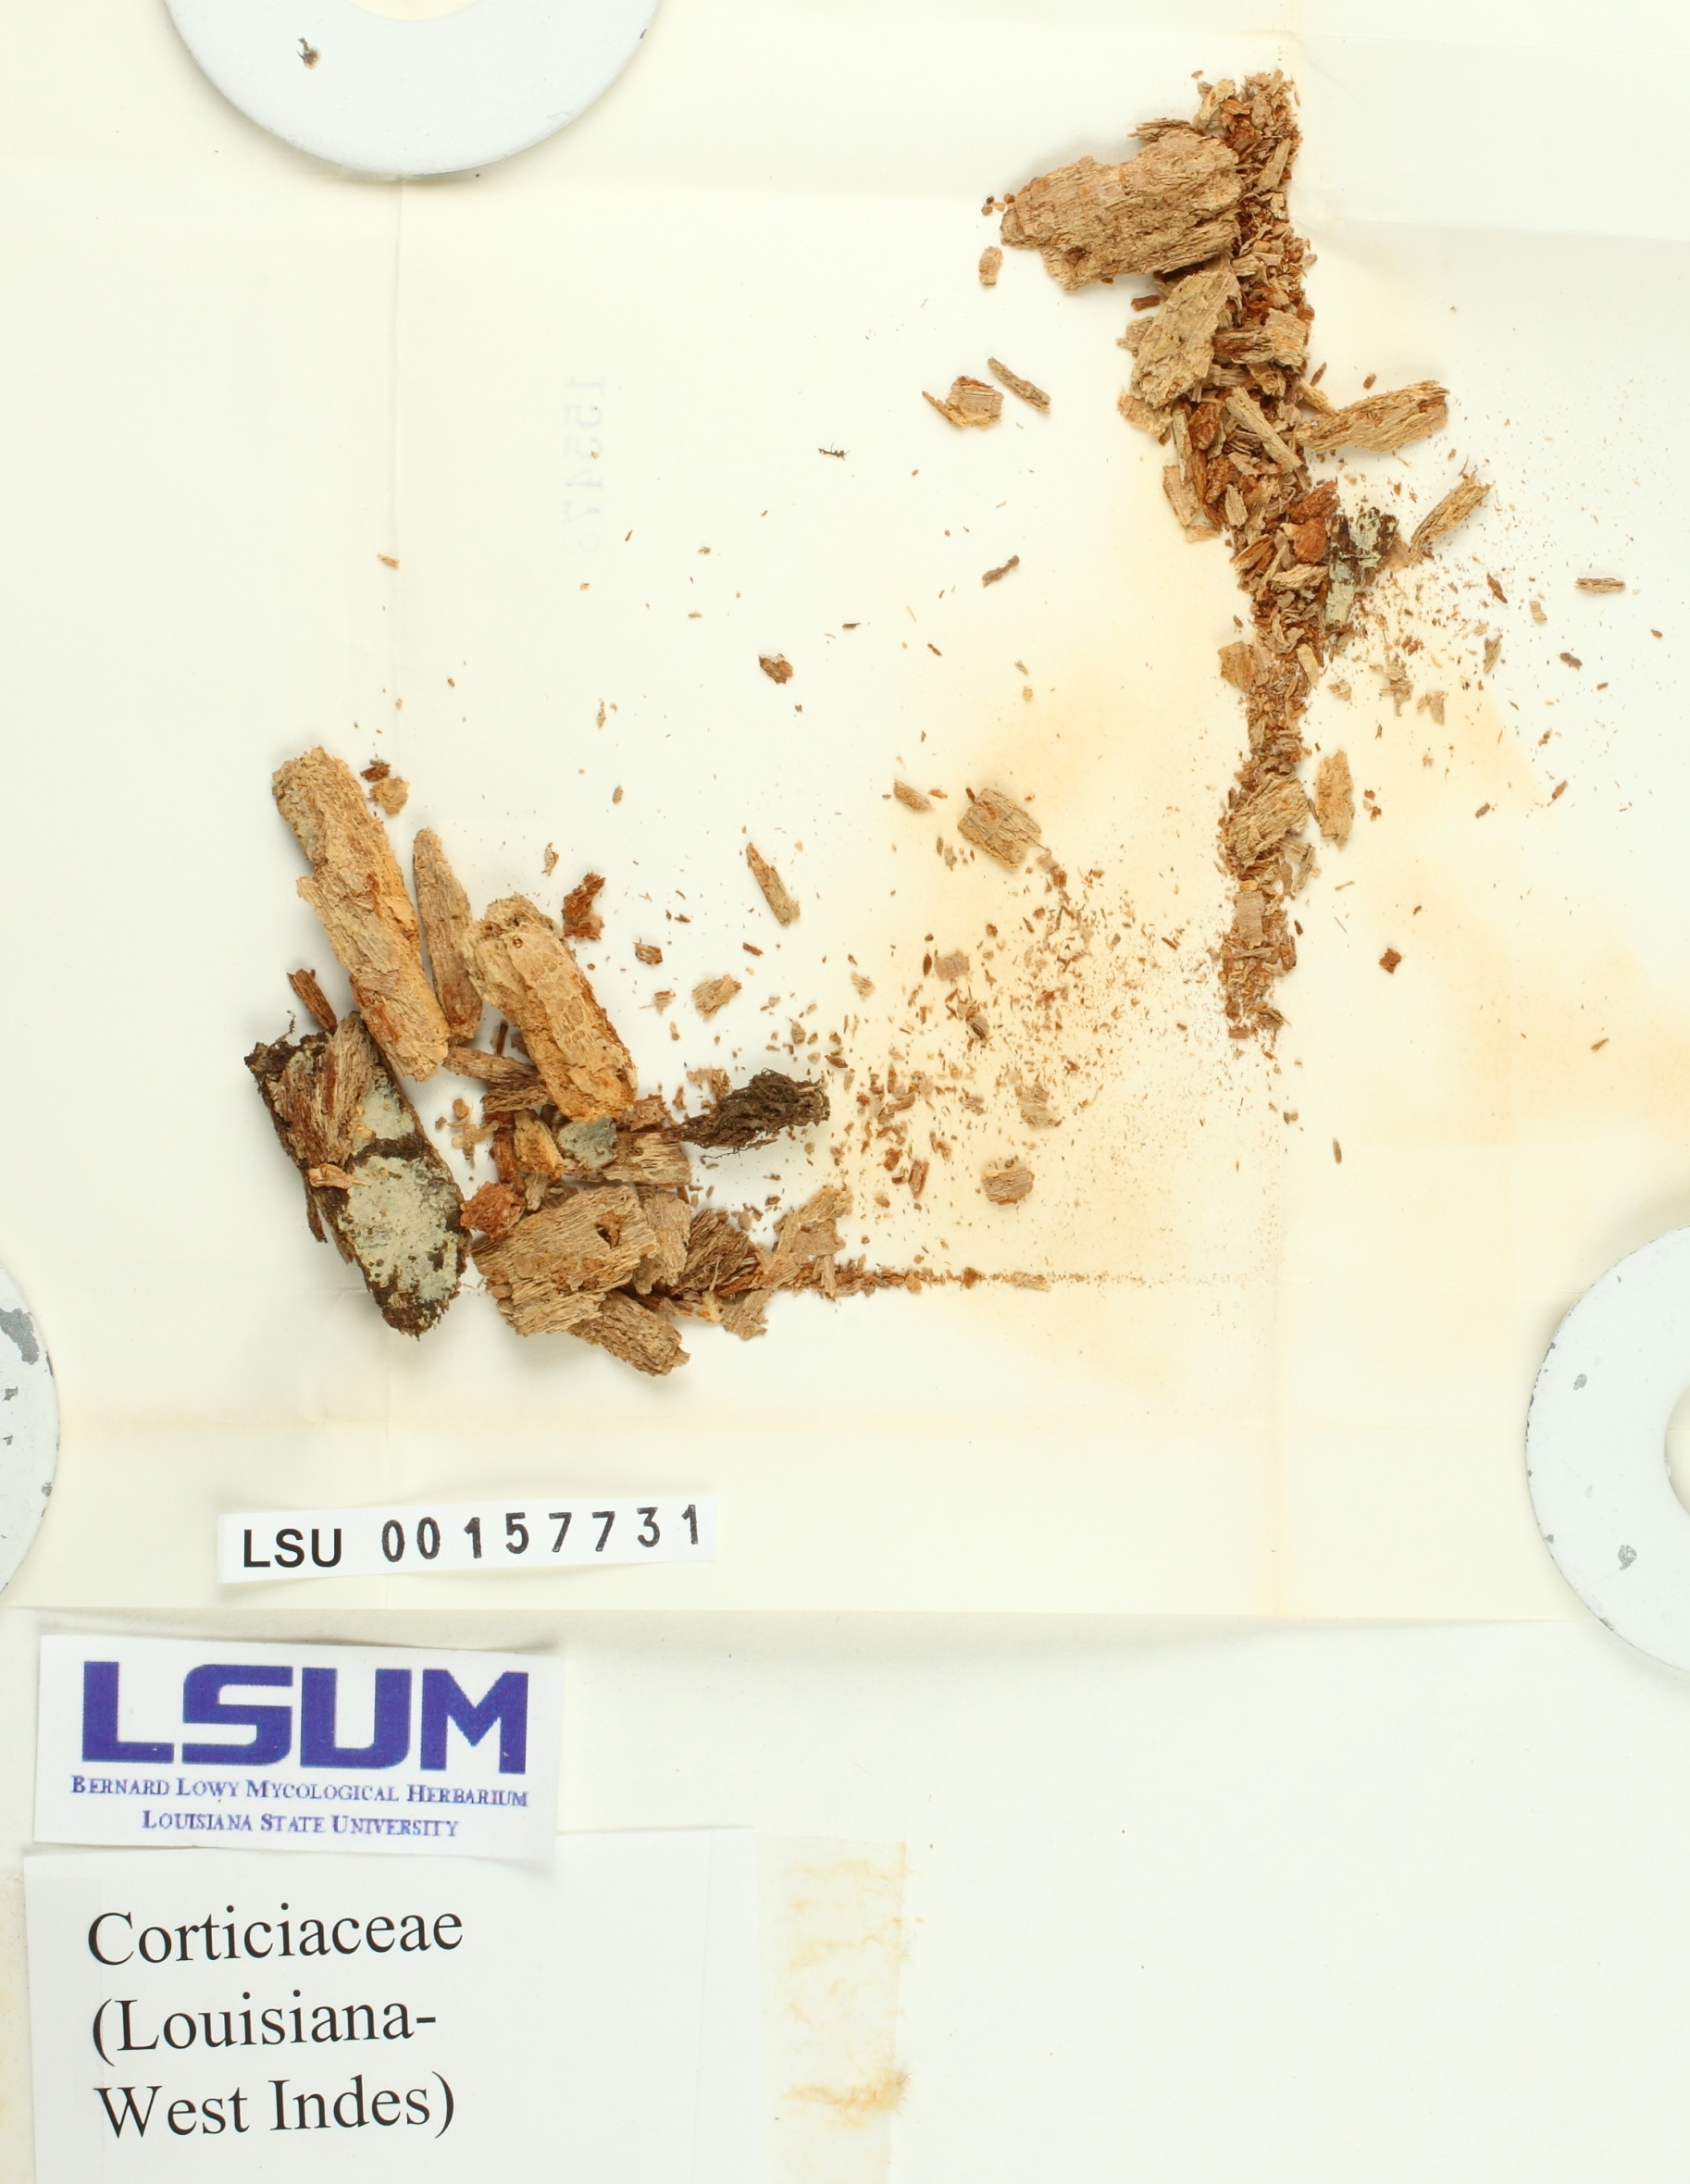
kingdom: Fungi
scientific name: Fungi
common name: Fungi
